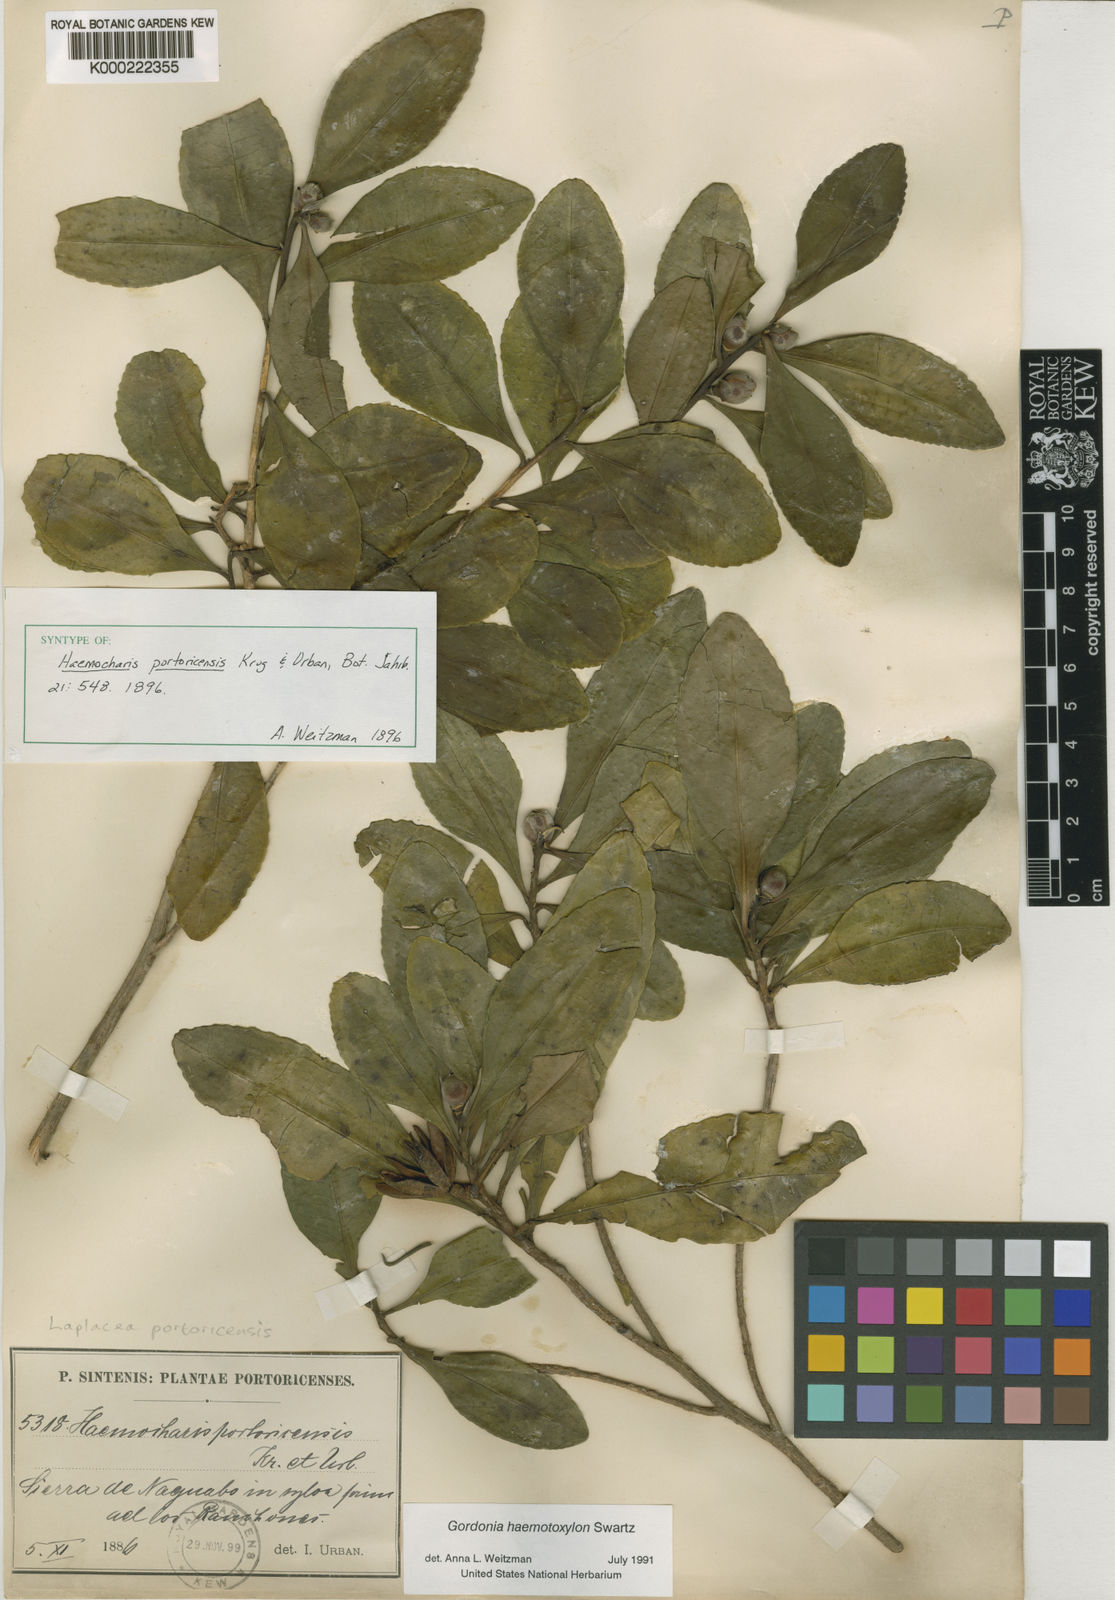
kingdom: Plantae
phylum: Tracheophyta
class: Magnoliopsida
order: Ericales
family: Theaceae
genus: Gordonia
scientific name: Gordonia portoricensis
